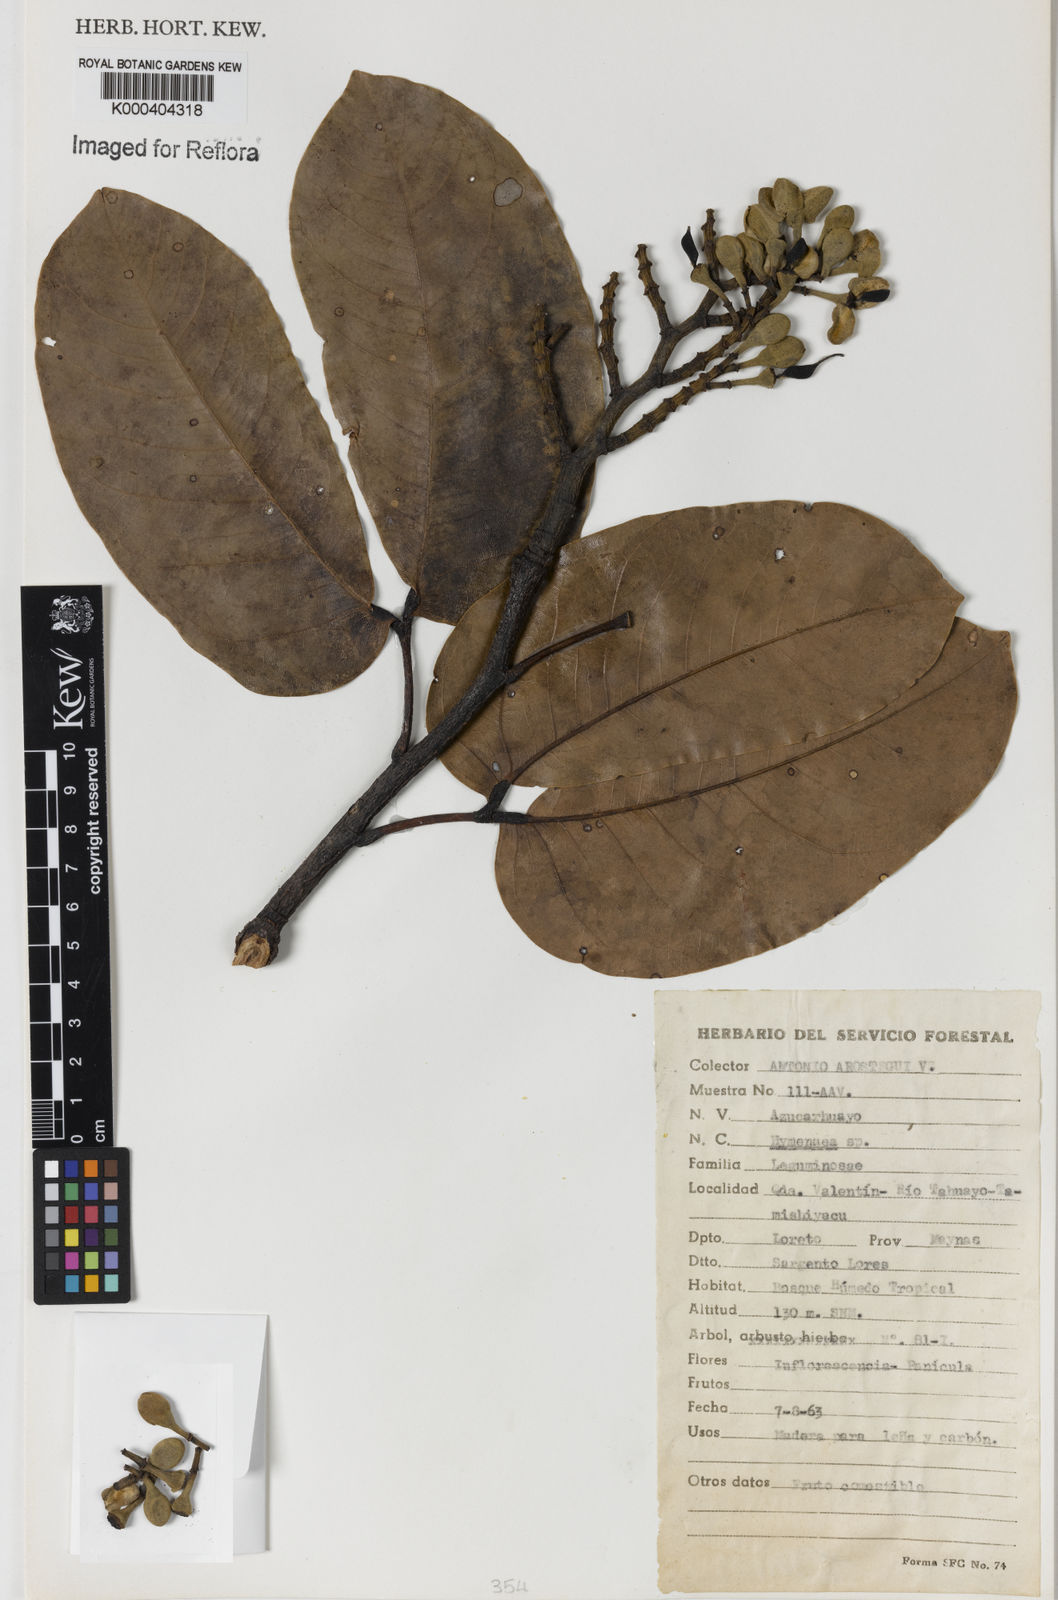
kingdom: Plantae
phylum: Tracheophyta
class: Magnoliopsida
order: Fabales
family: Fabaceae
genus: Hymenaea
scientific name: Hymenaea
